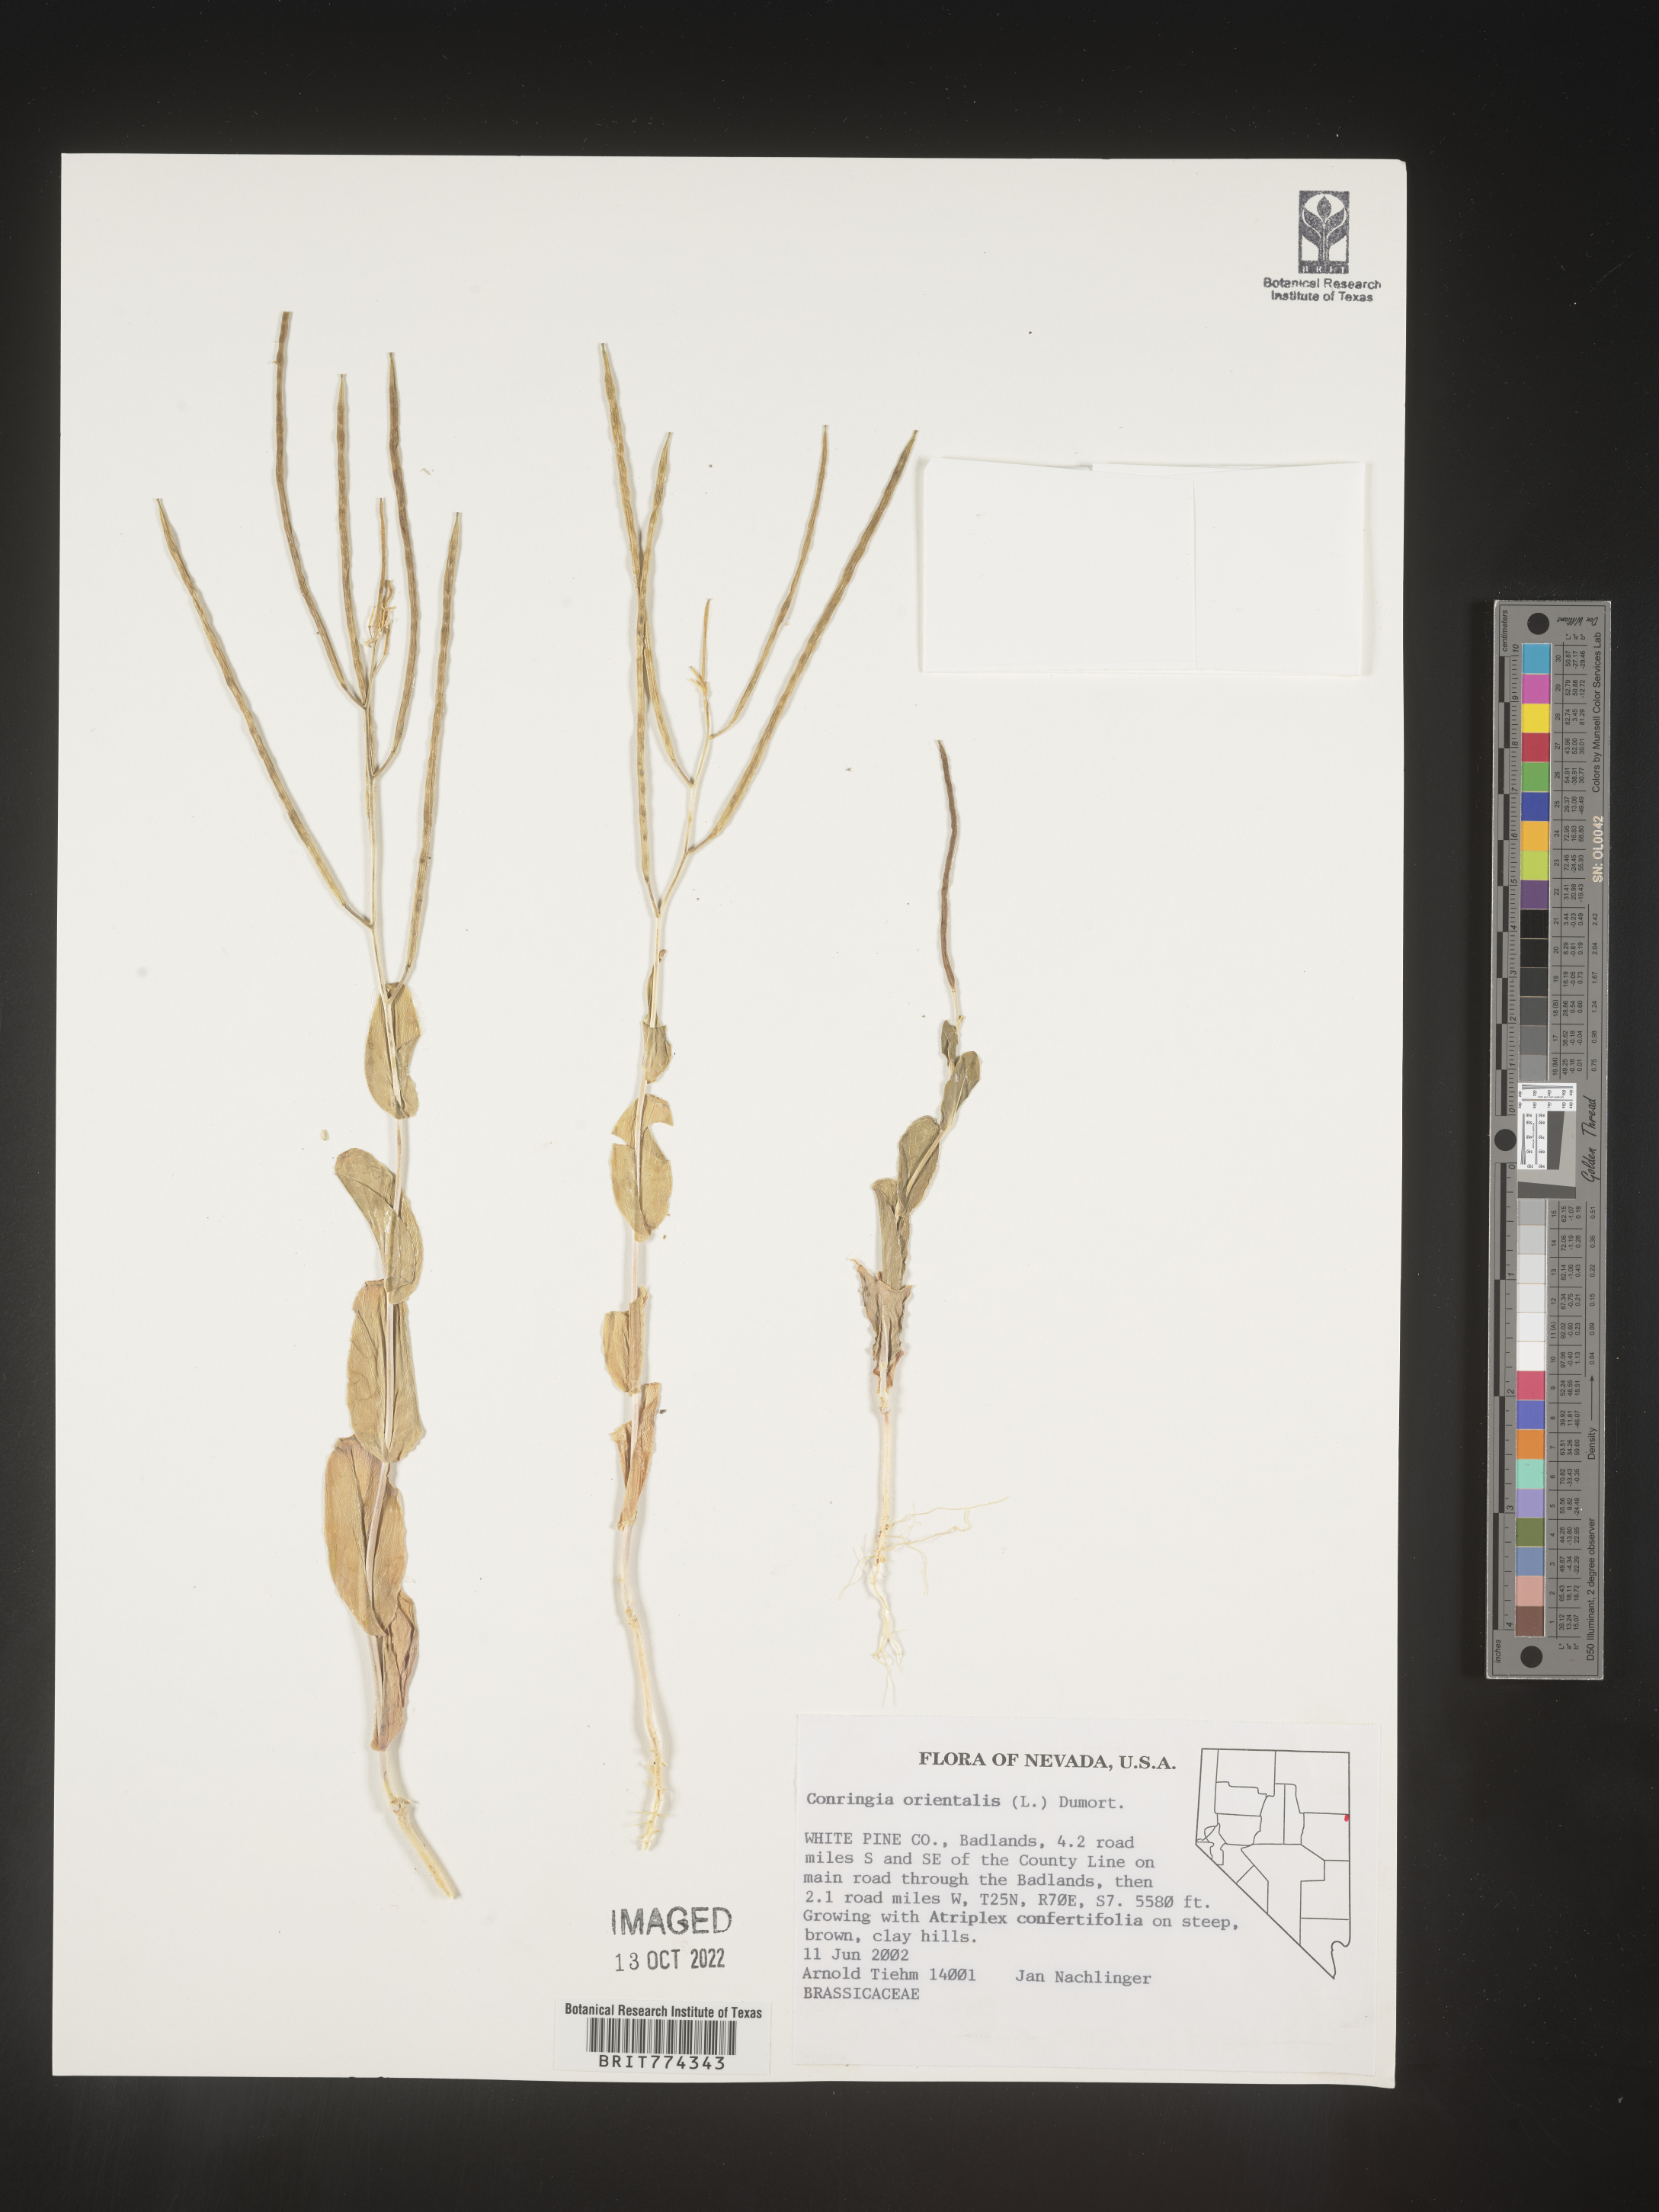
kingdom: Plantae
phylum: Tracheophyta
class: Magnoliopsida
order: Brassicales
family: Brassicaceae
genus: Conringia
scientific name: Conringia
